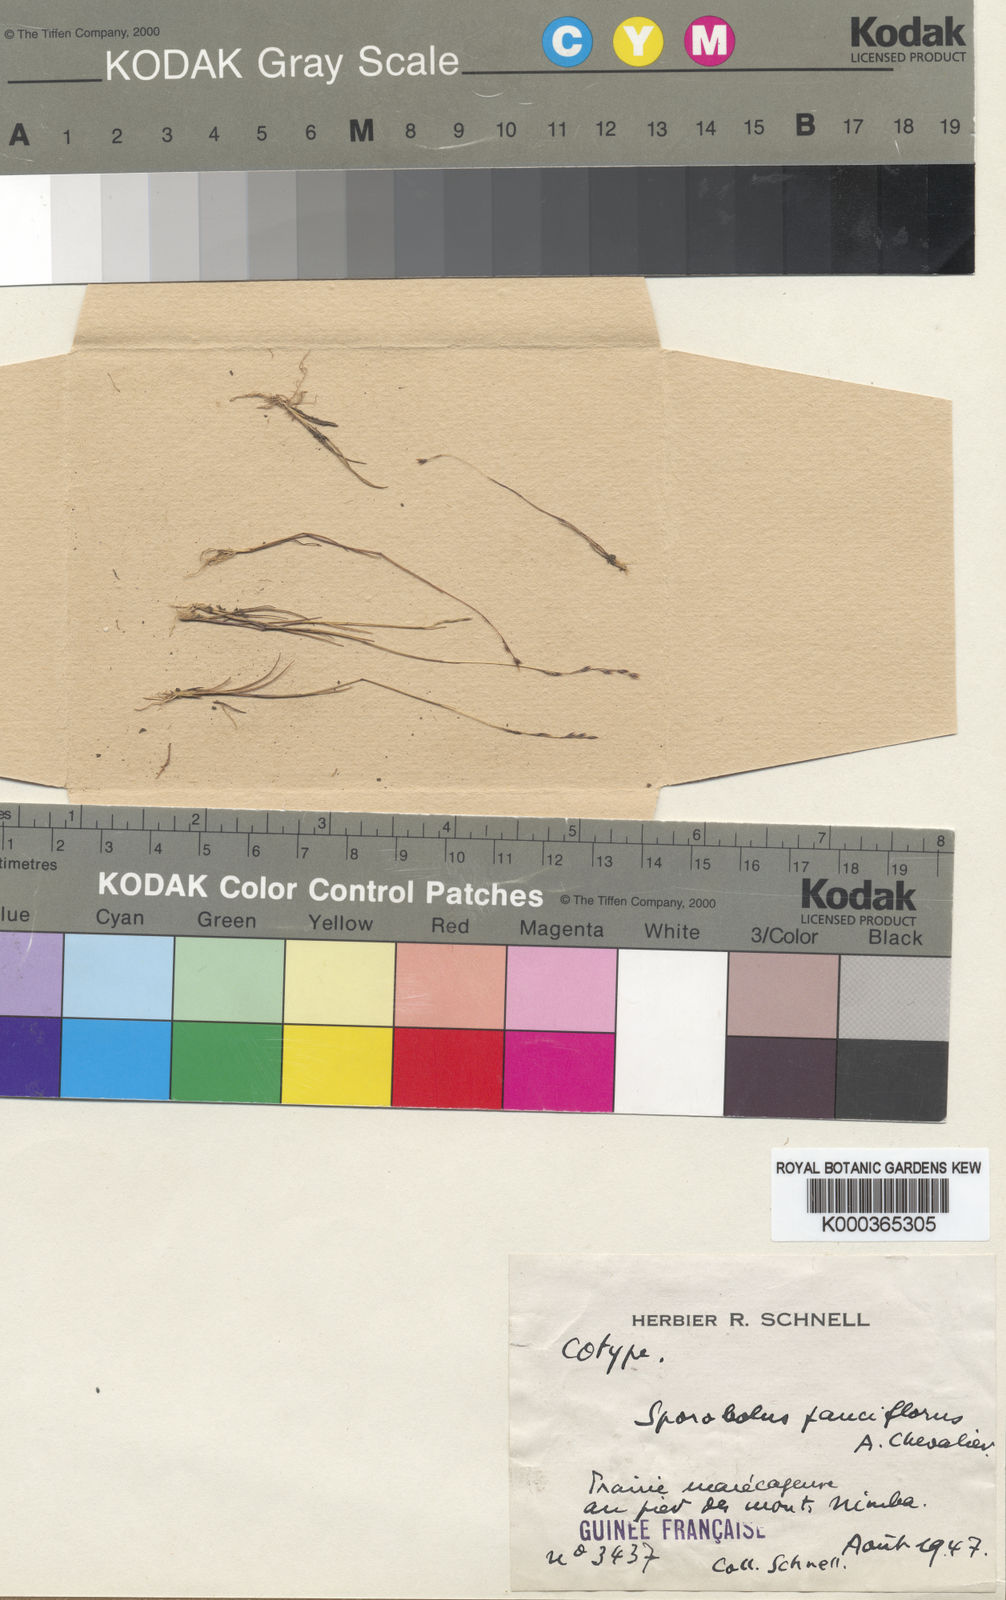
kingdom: Plantae
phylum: Tracheophyta
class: Liliopsida
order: Poales
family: Poaceae
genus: Sporobolus
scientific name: Sporobolus pauciflorus
